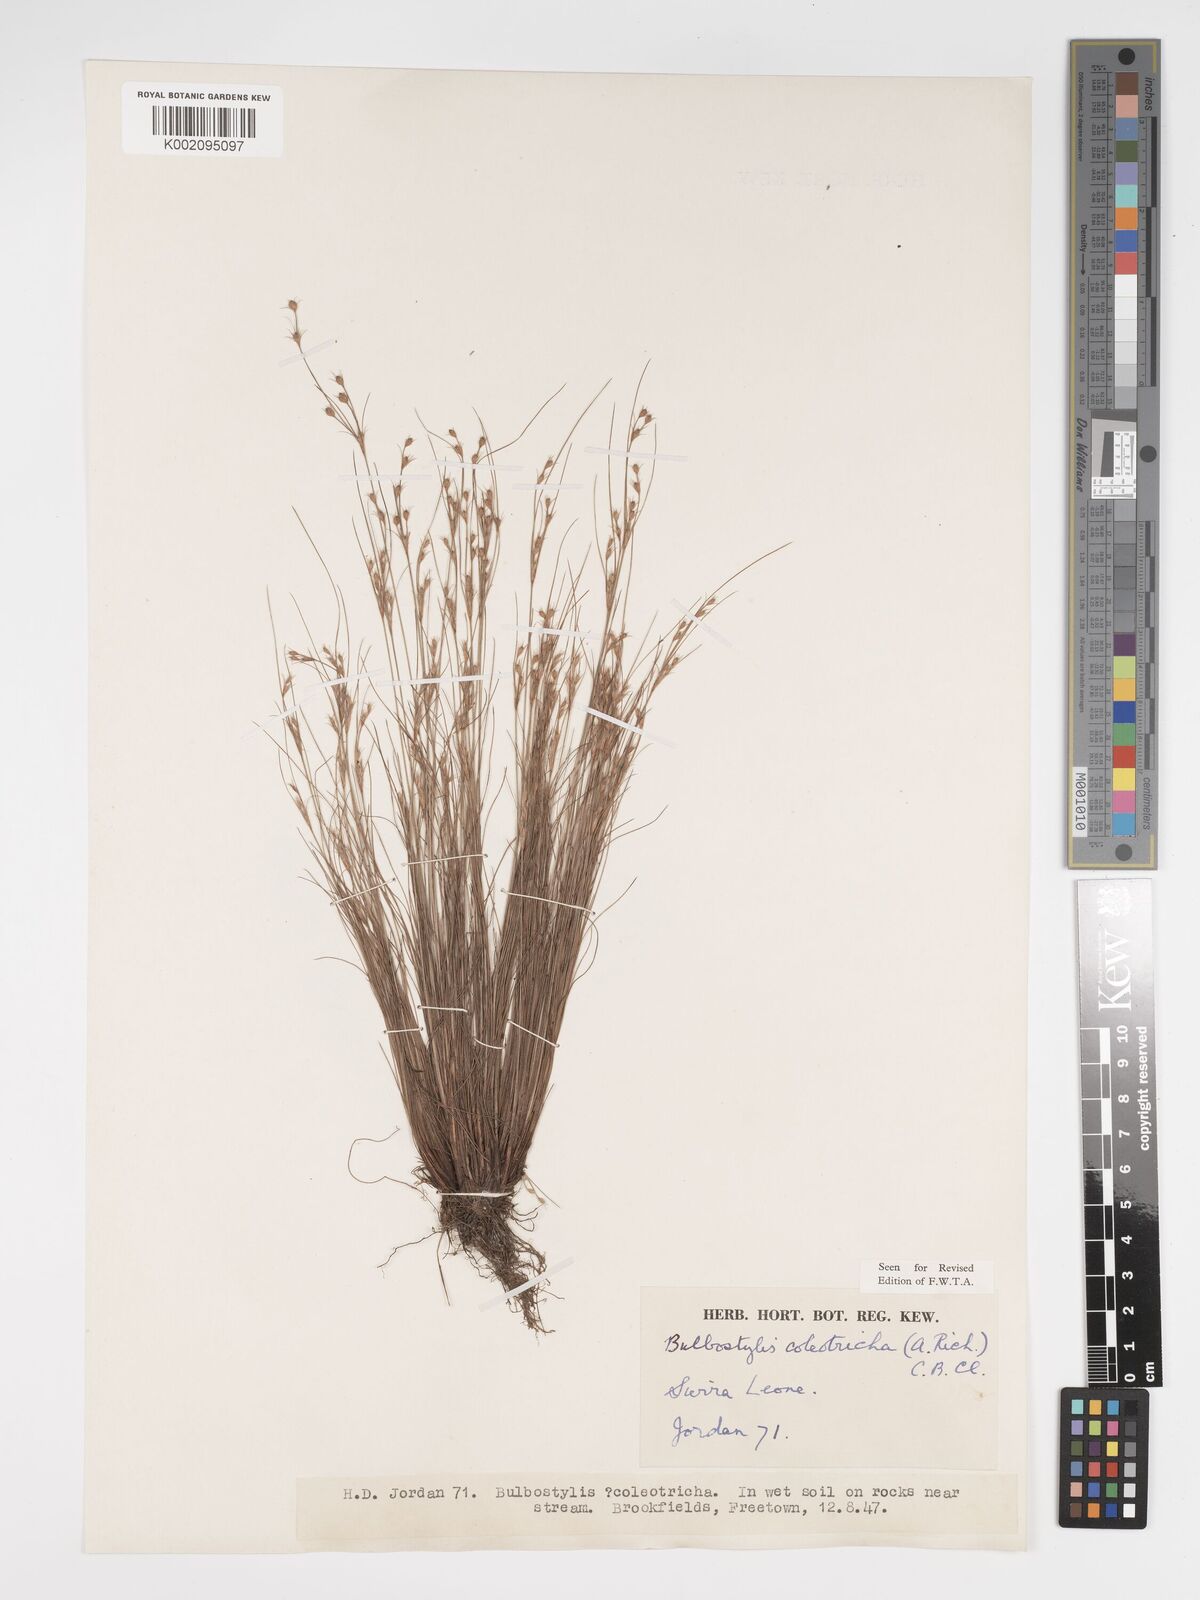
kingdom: Plantae
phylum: Tracheophyta
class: Liliopsida
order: Poales
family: Cyperaceae
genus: Bulbostylis
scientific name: Bulbostylis coleotricha
